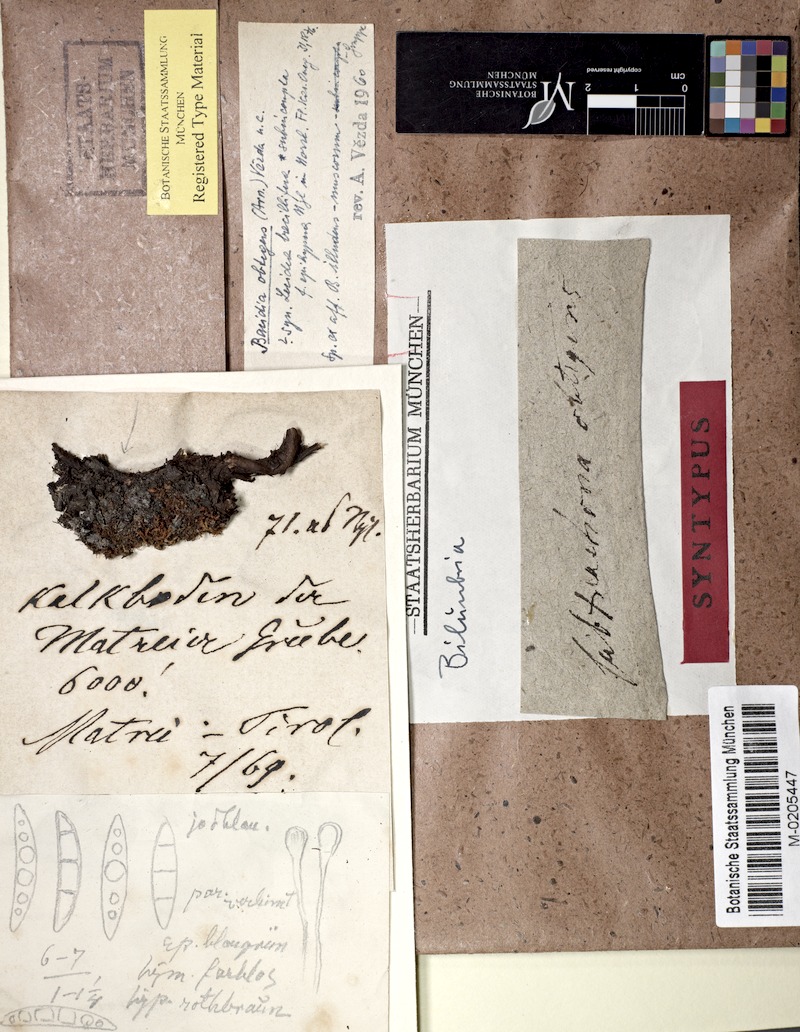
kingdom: Fungi
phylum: Ascomycota
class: Lecanoromycetes
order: Lecanorales
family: Ramalinaceae
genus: Bacidia
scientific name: Bacidia
